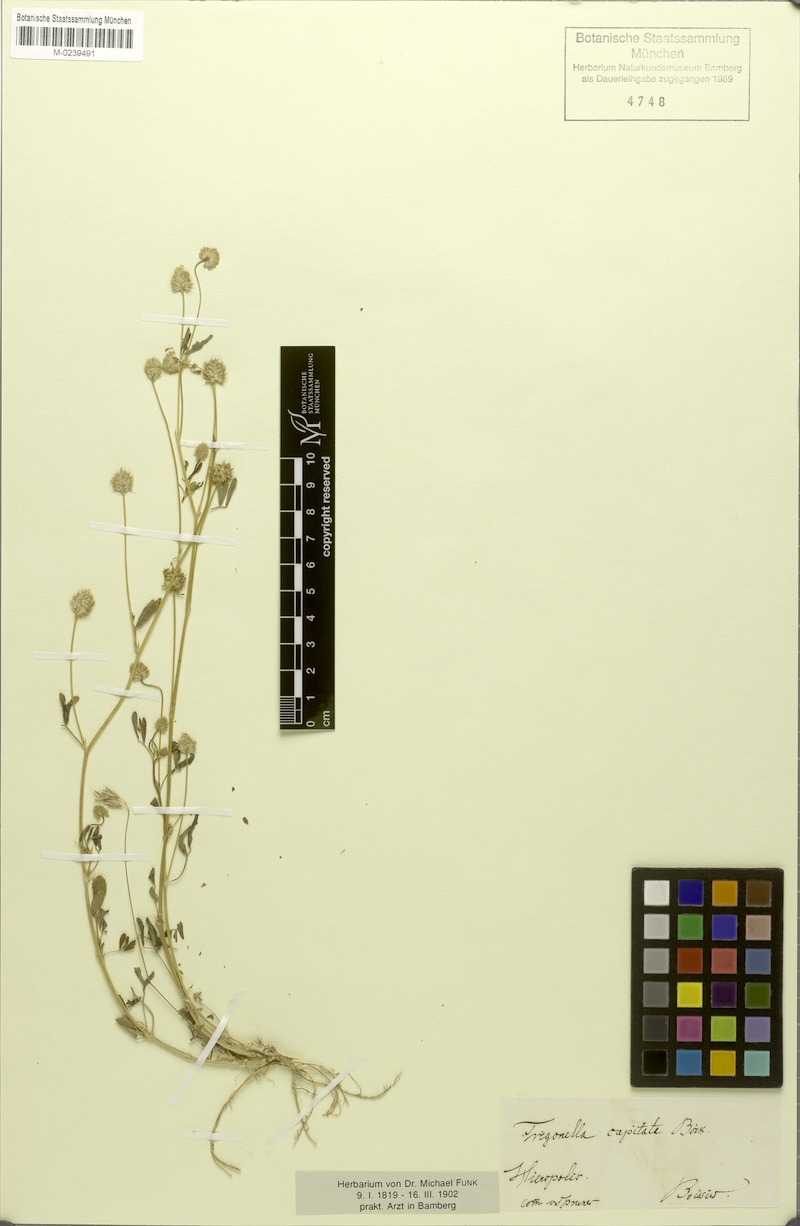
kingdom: Plantae
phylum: Tracheophyta
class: Magnoliopsida
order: Fabales
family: Fabaceae
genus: Trigonella
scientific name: Trigonella capitata
